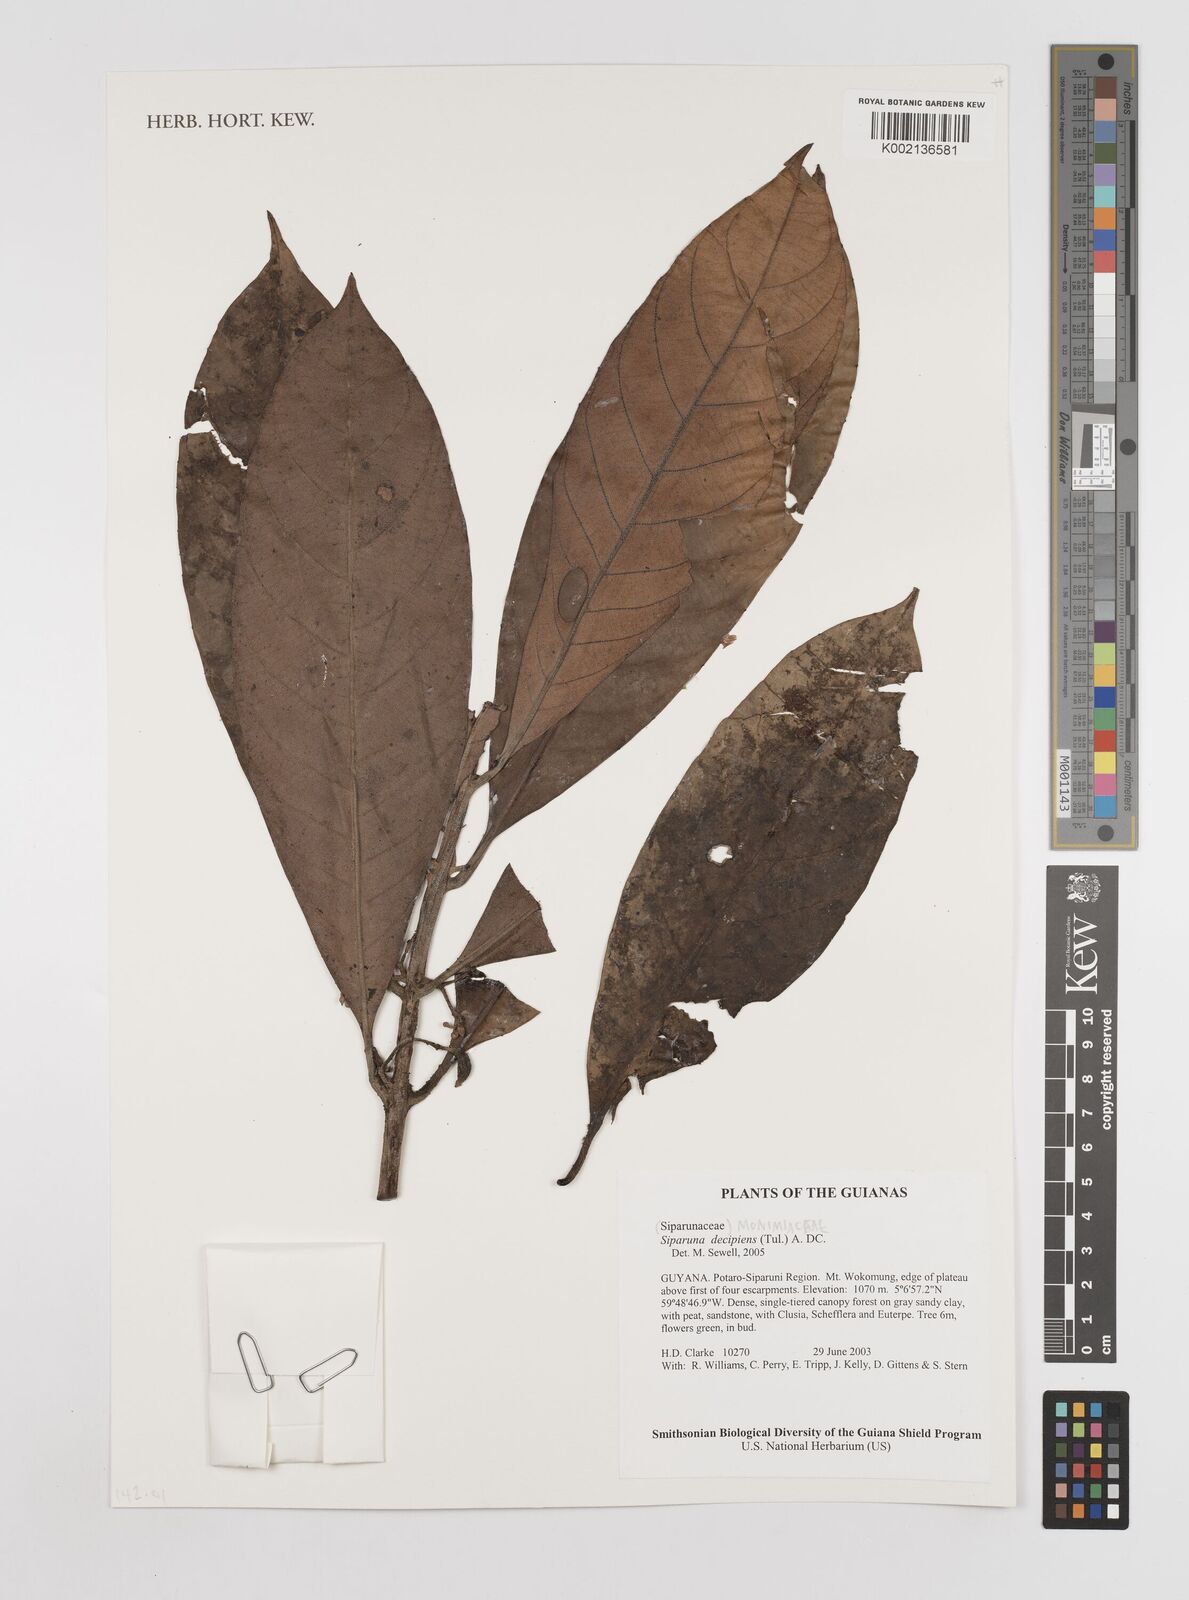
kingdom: Plantae
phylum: Tracheophyta
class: Magnoliopsida
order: Laurales
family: Siparunaceae
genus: Siparuna
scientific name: Siparuna decipiens
